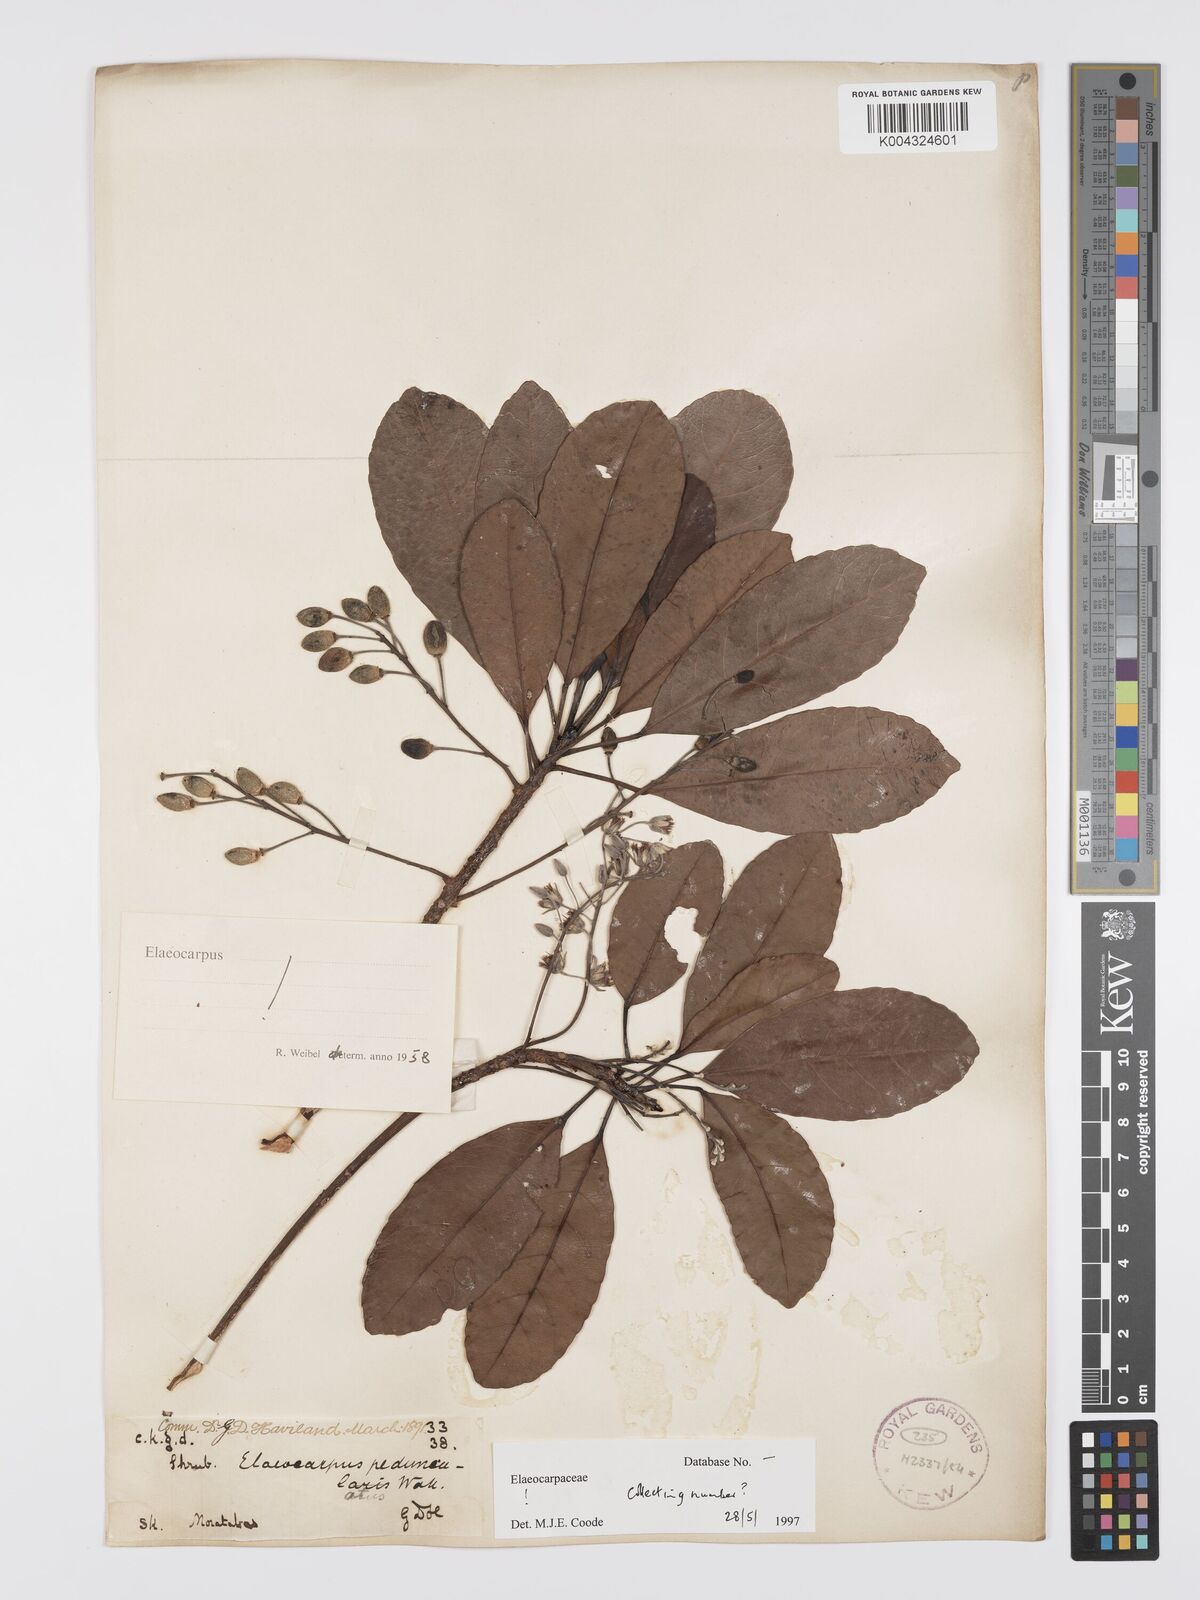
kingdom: Plantae
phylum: Tracheophyta
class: Magnoliopsida
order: Oxalidales
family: Elaeocarpaceae
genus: Elaeocarpus
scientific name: Elaeocarpus pedunculatus
